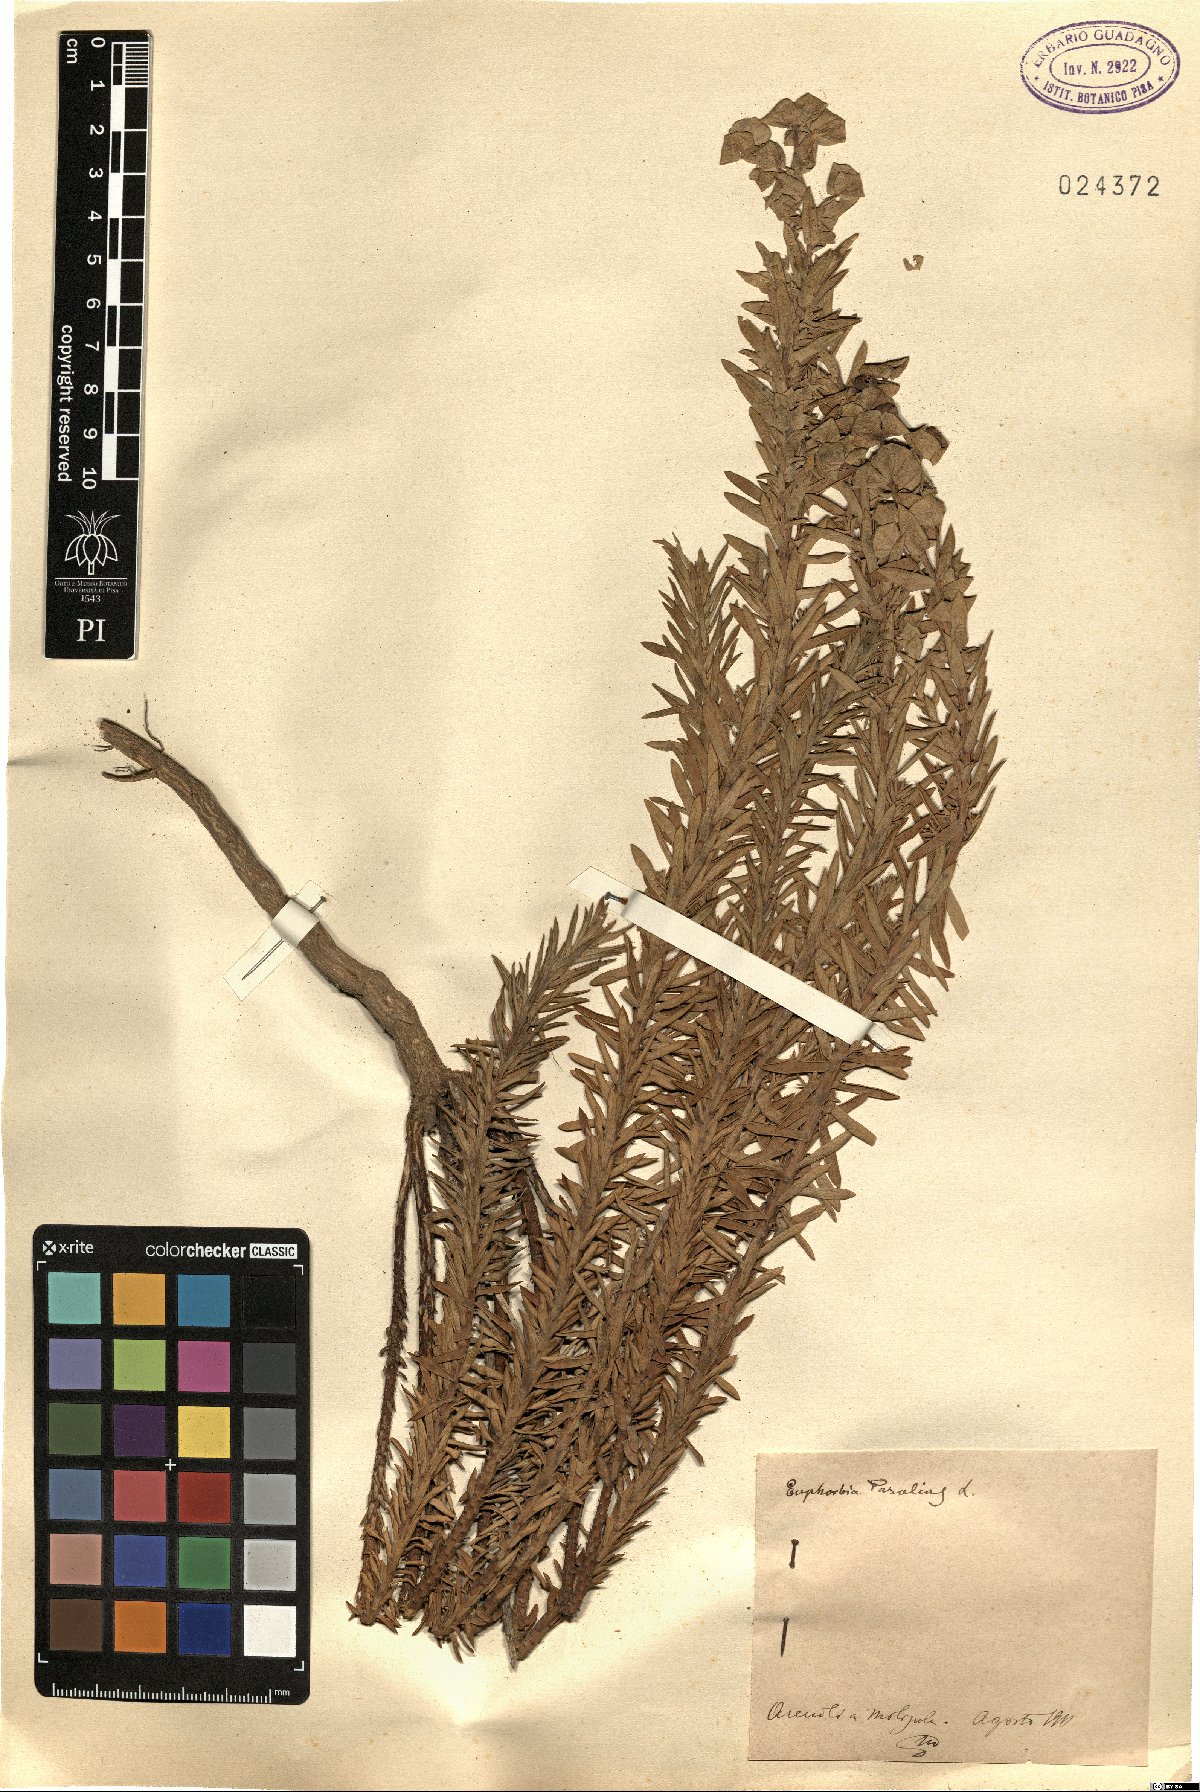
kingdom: Plantae
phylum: Tracheophyta
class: Magnoliopsida
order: Malpighiales
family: Euphorbiaceae
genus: Euphorbia
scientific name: Euphorbia paralias
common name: Sea spurge
